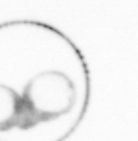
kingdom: Chromista
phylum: Myzozoa
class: Dinophyceae
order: Noctilucales
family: Noctilucaceae
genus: Noctiluca
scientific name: Noctiluca scintillans
